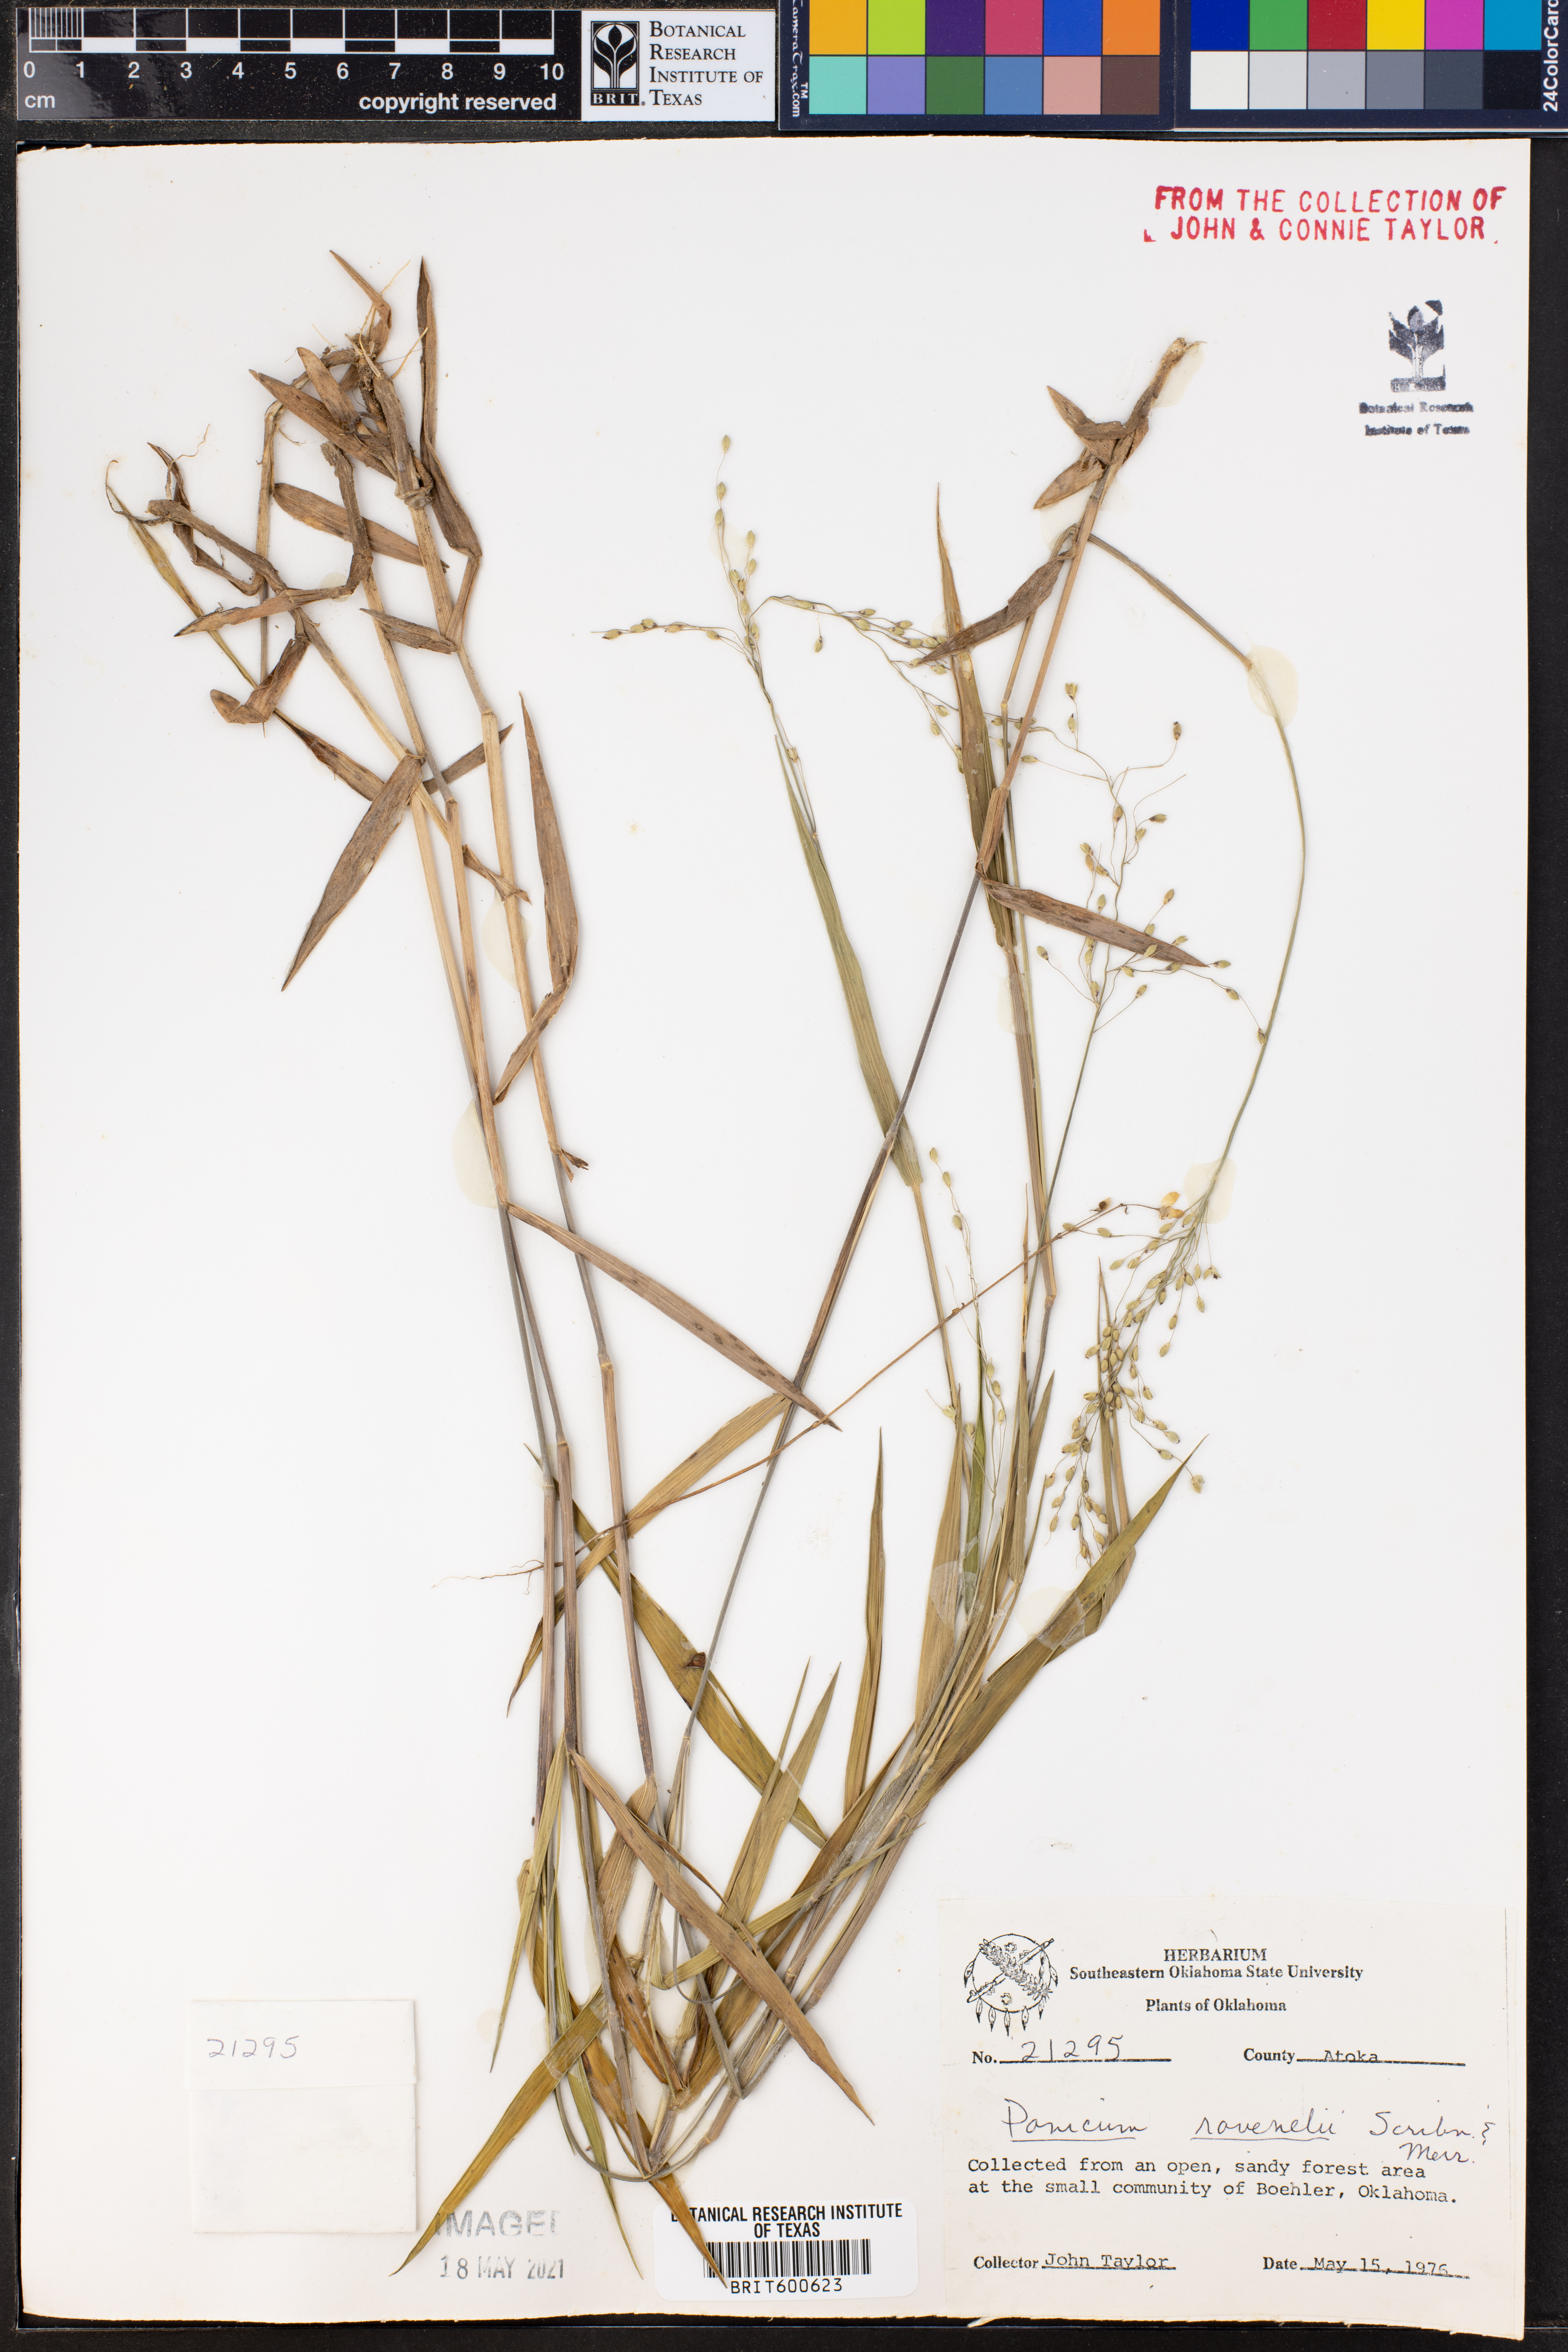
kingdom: Plantae
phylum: Tracheophyta
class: Liliopsida
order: Poales
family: Poaceae
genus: Dichanthelium
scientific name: Dichanthelium ravenelii
